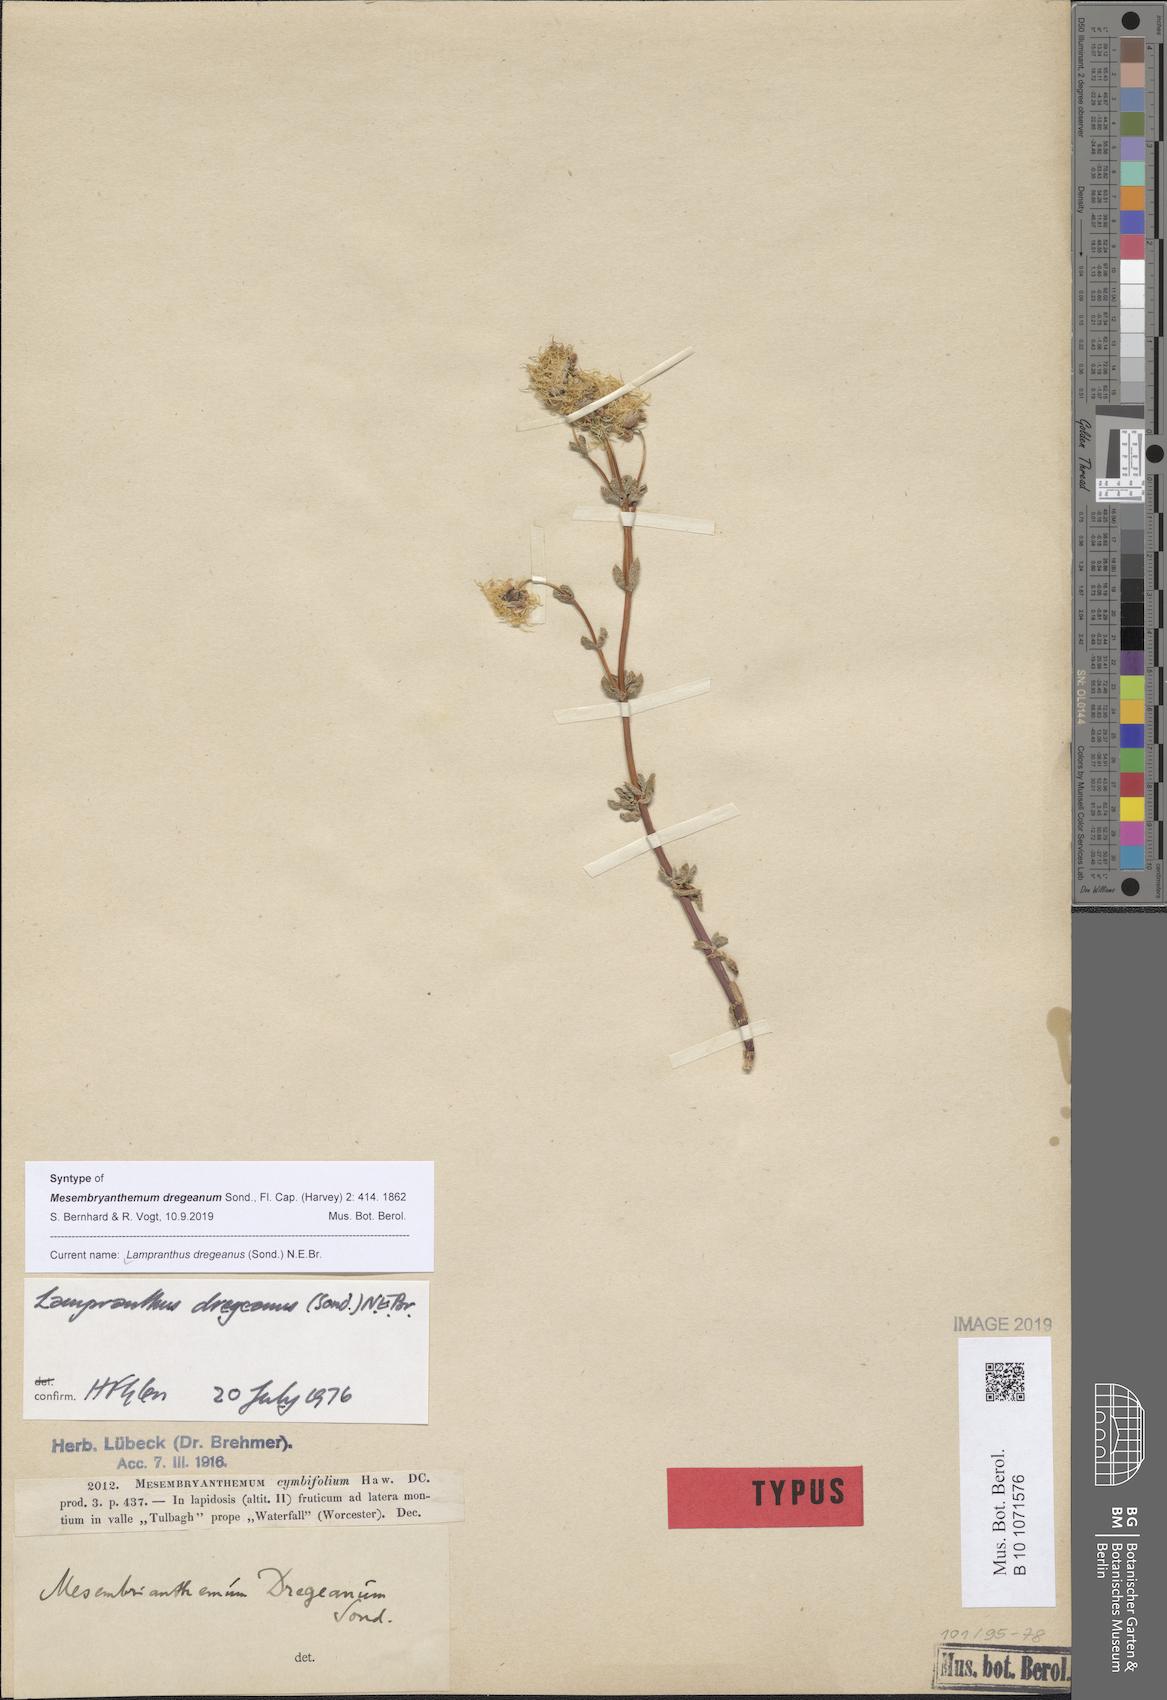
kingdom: Plantae
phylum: Tracheophyta
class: Magnoliopsida
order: Caryophyllales
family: Aizoaceae
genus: Lampranthus
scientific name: Lampranthus dregeanus
